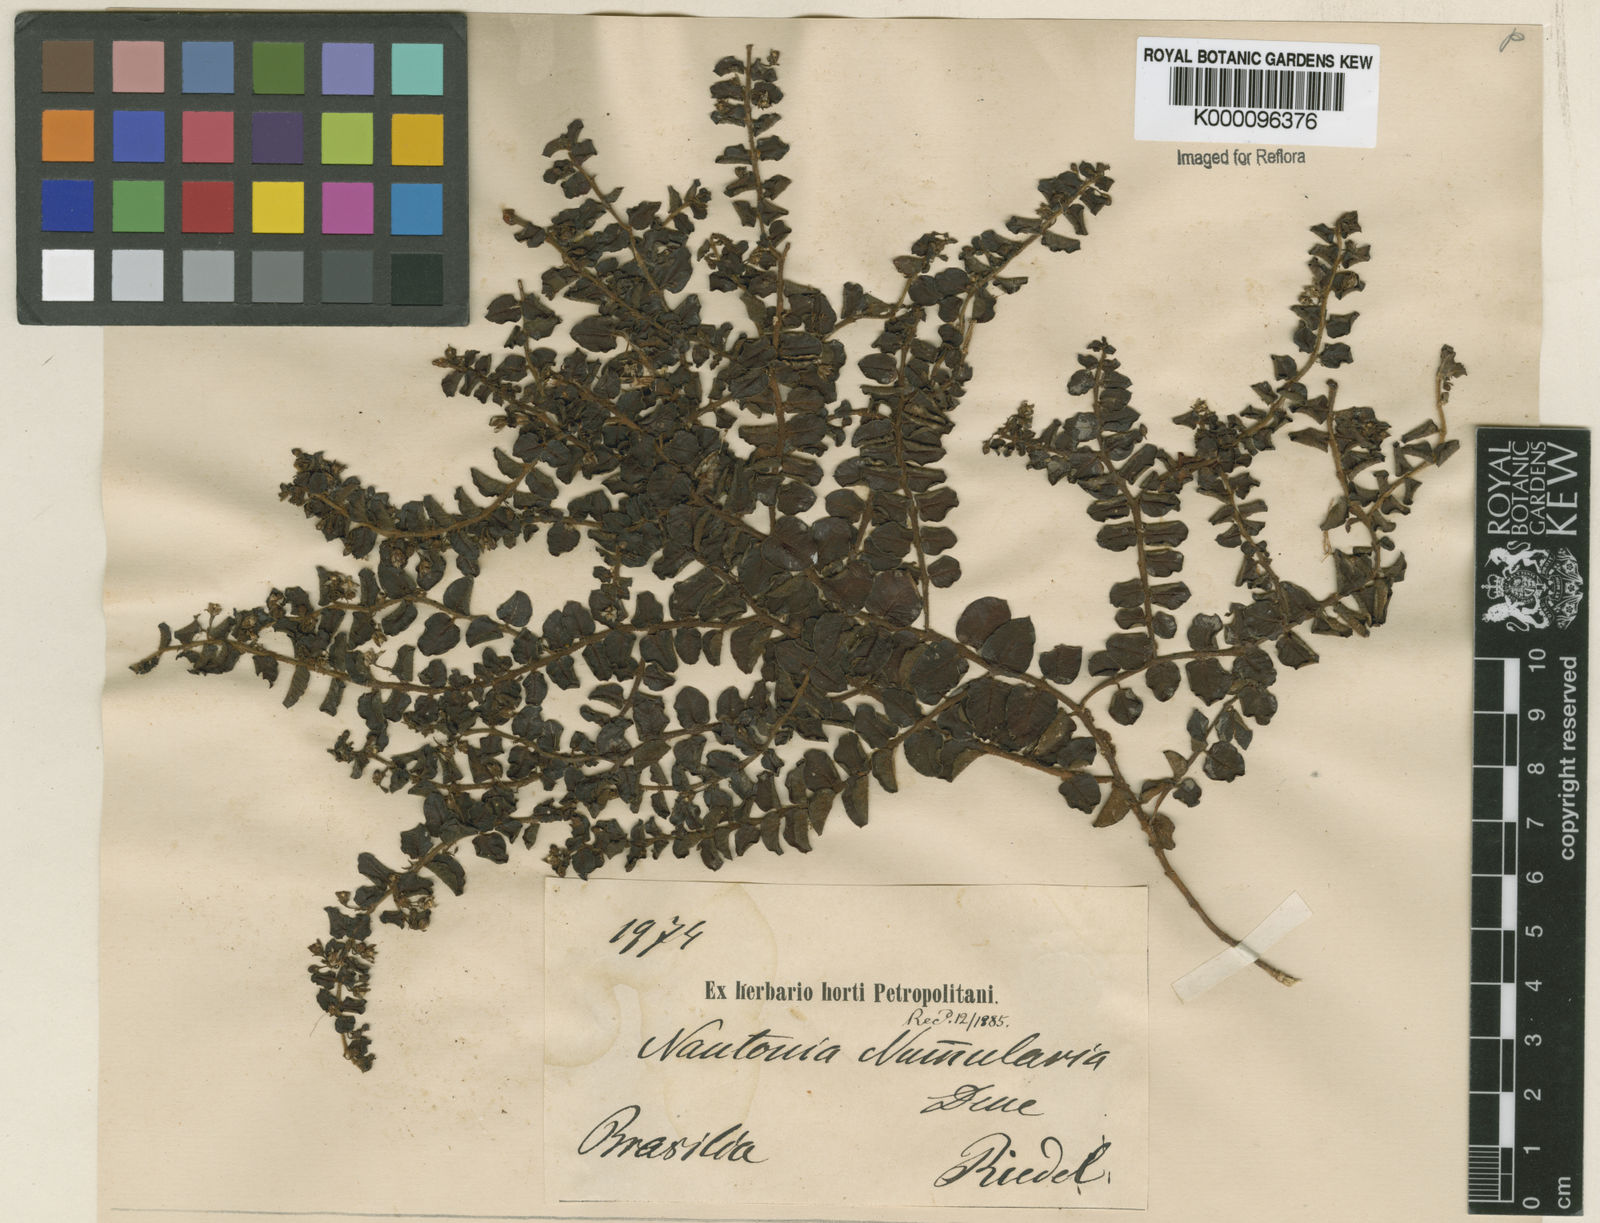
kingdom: Plantae
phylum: Tracheophyta
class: Magnoliopsida
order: Gentianales
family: Apocynaceae
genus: Nautonia
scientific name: Nautonia nummularia
